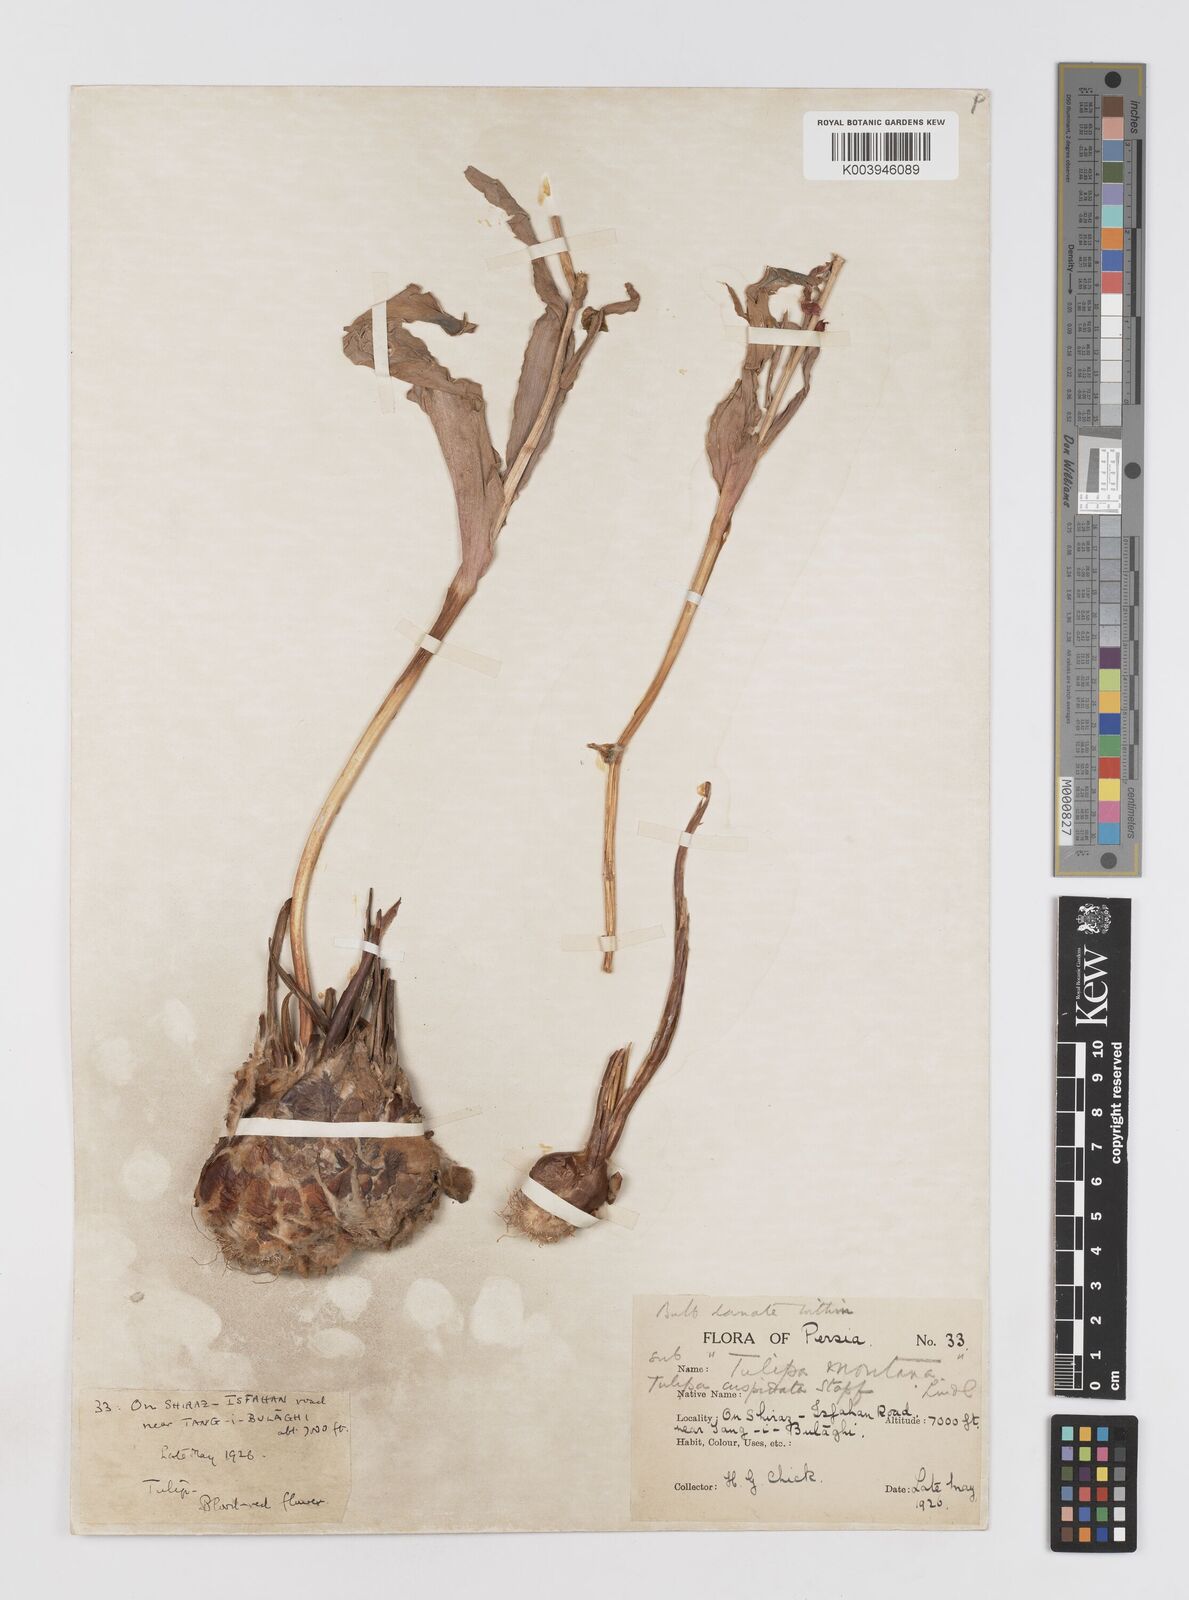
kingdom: Plantae
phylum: Tracheophyta
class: Liliopsida
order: Liliales
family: Liliaceae
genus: Tulipa
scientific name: Tulipa systola
